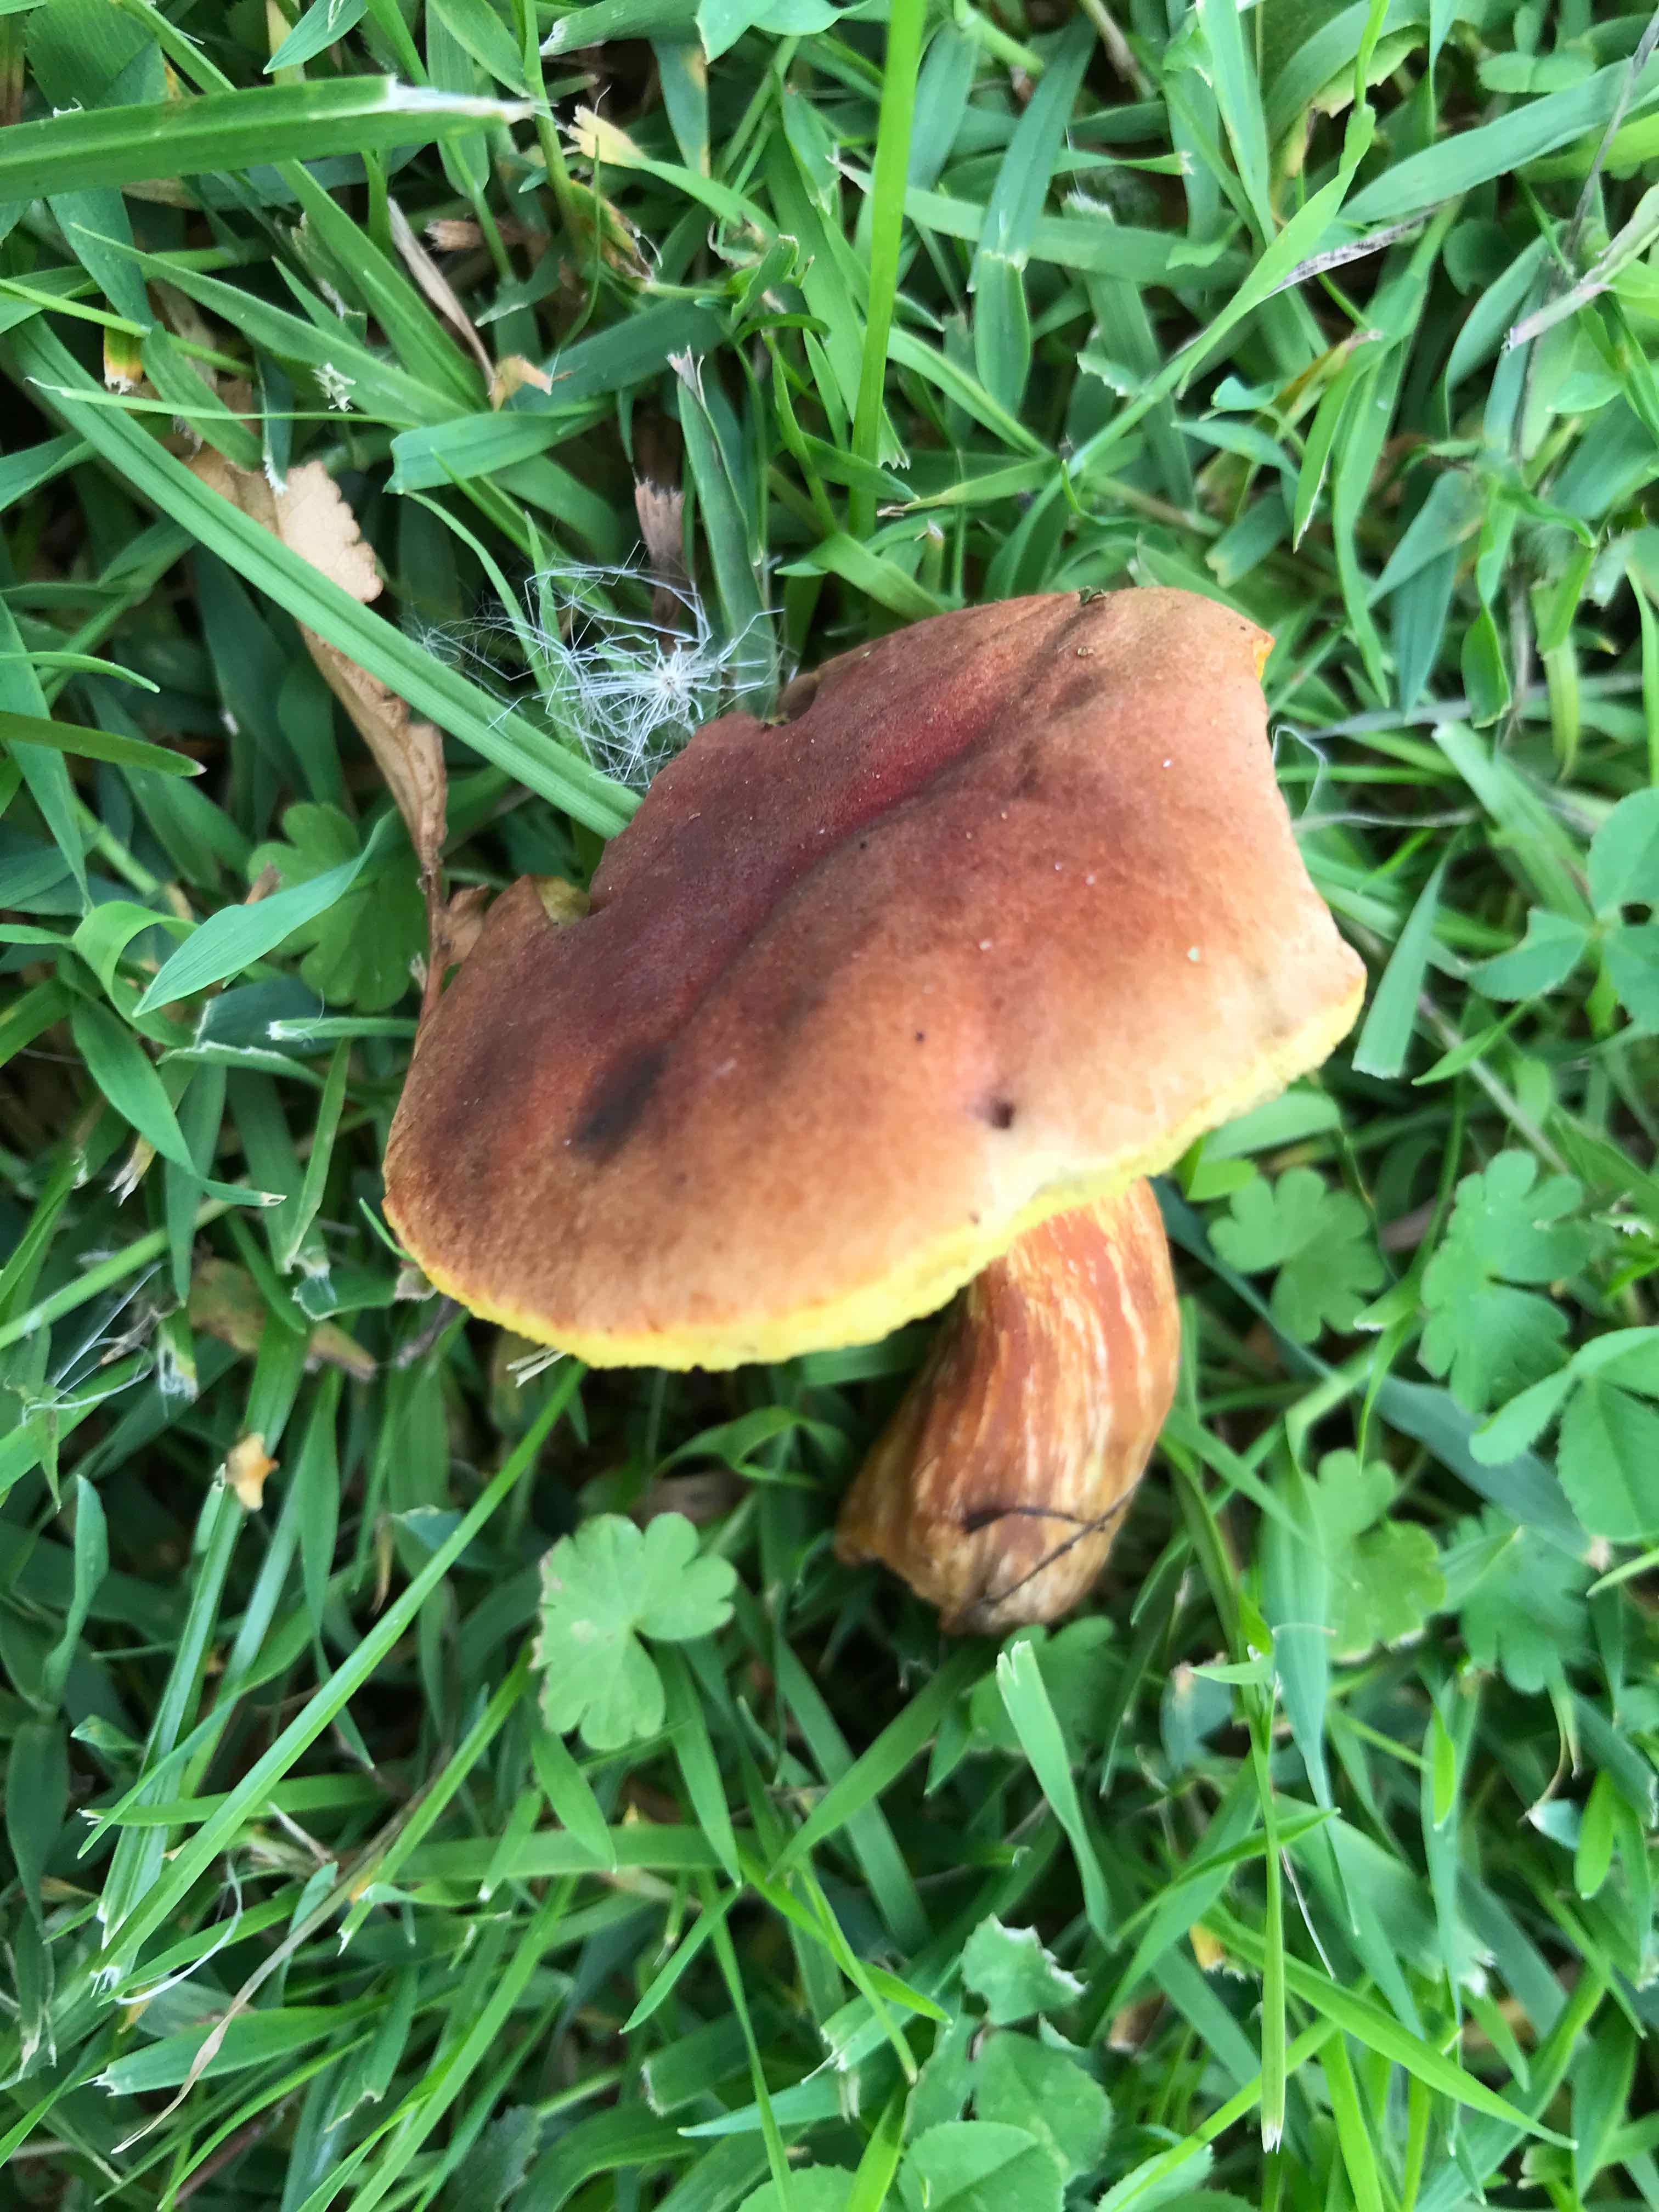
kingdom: Fungi
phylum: Basidiomycota
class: Agaricomycetes
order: Boletales
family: Boletaceae
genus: Hortiboletus
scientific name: Hortiboletus
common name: dværgrørhat
